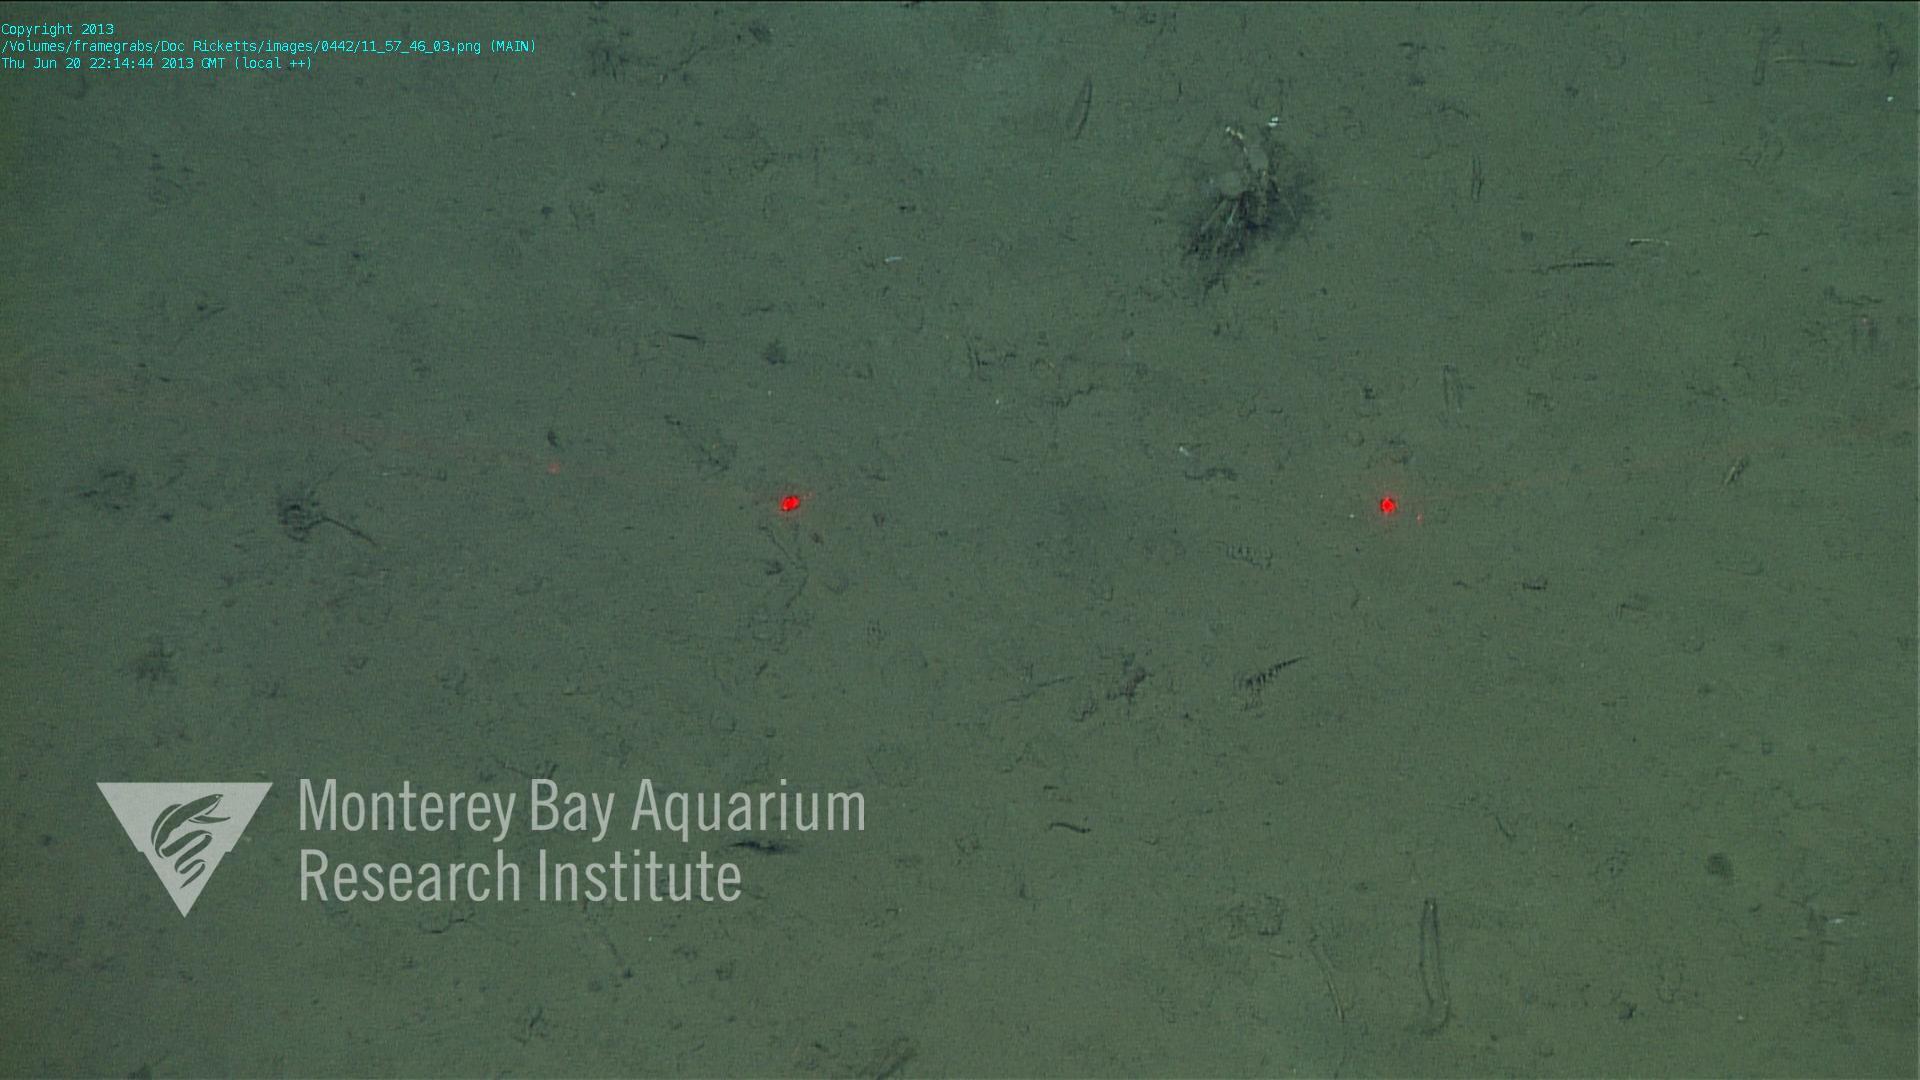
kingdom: Animalia
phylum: Porifera
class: Hexactinellida
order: Lyssacinosida
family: Rossellidae
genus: Bathydorus
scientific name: Bathydorus spinosus
